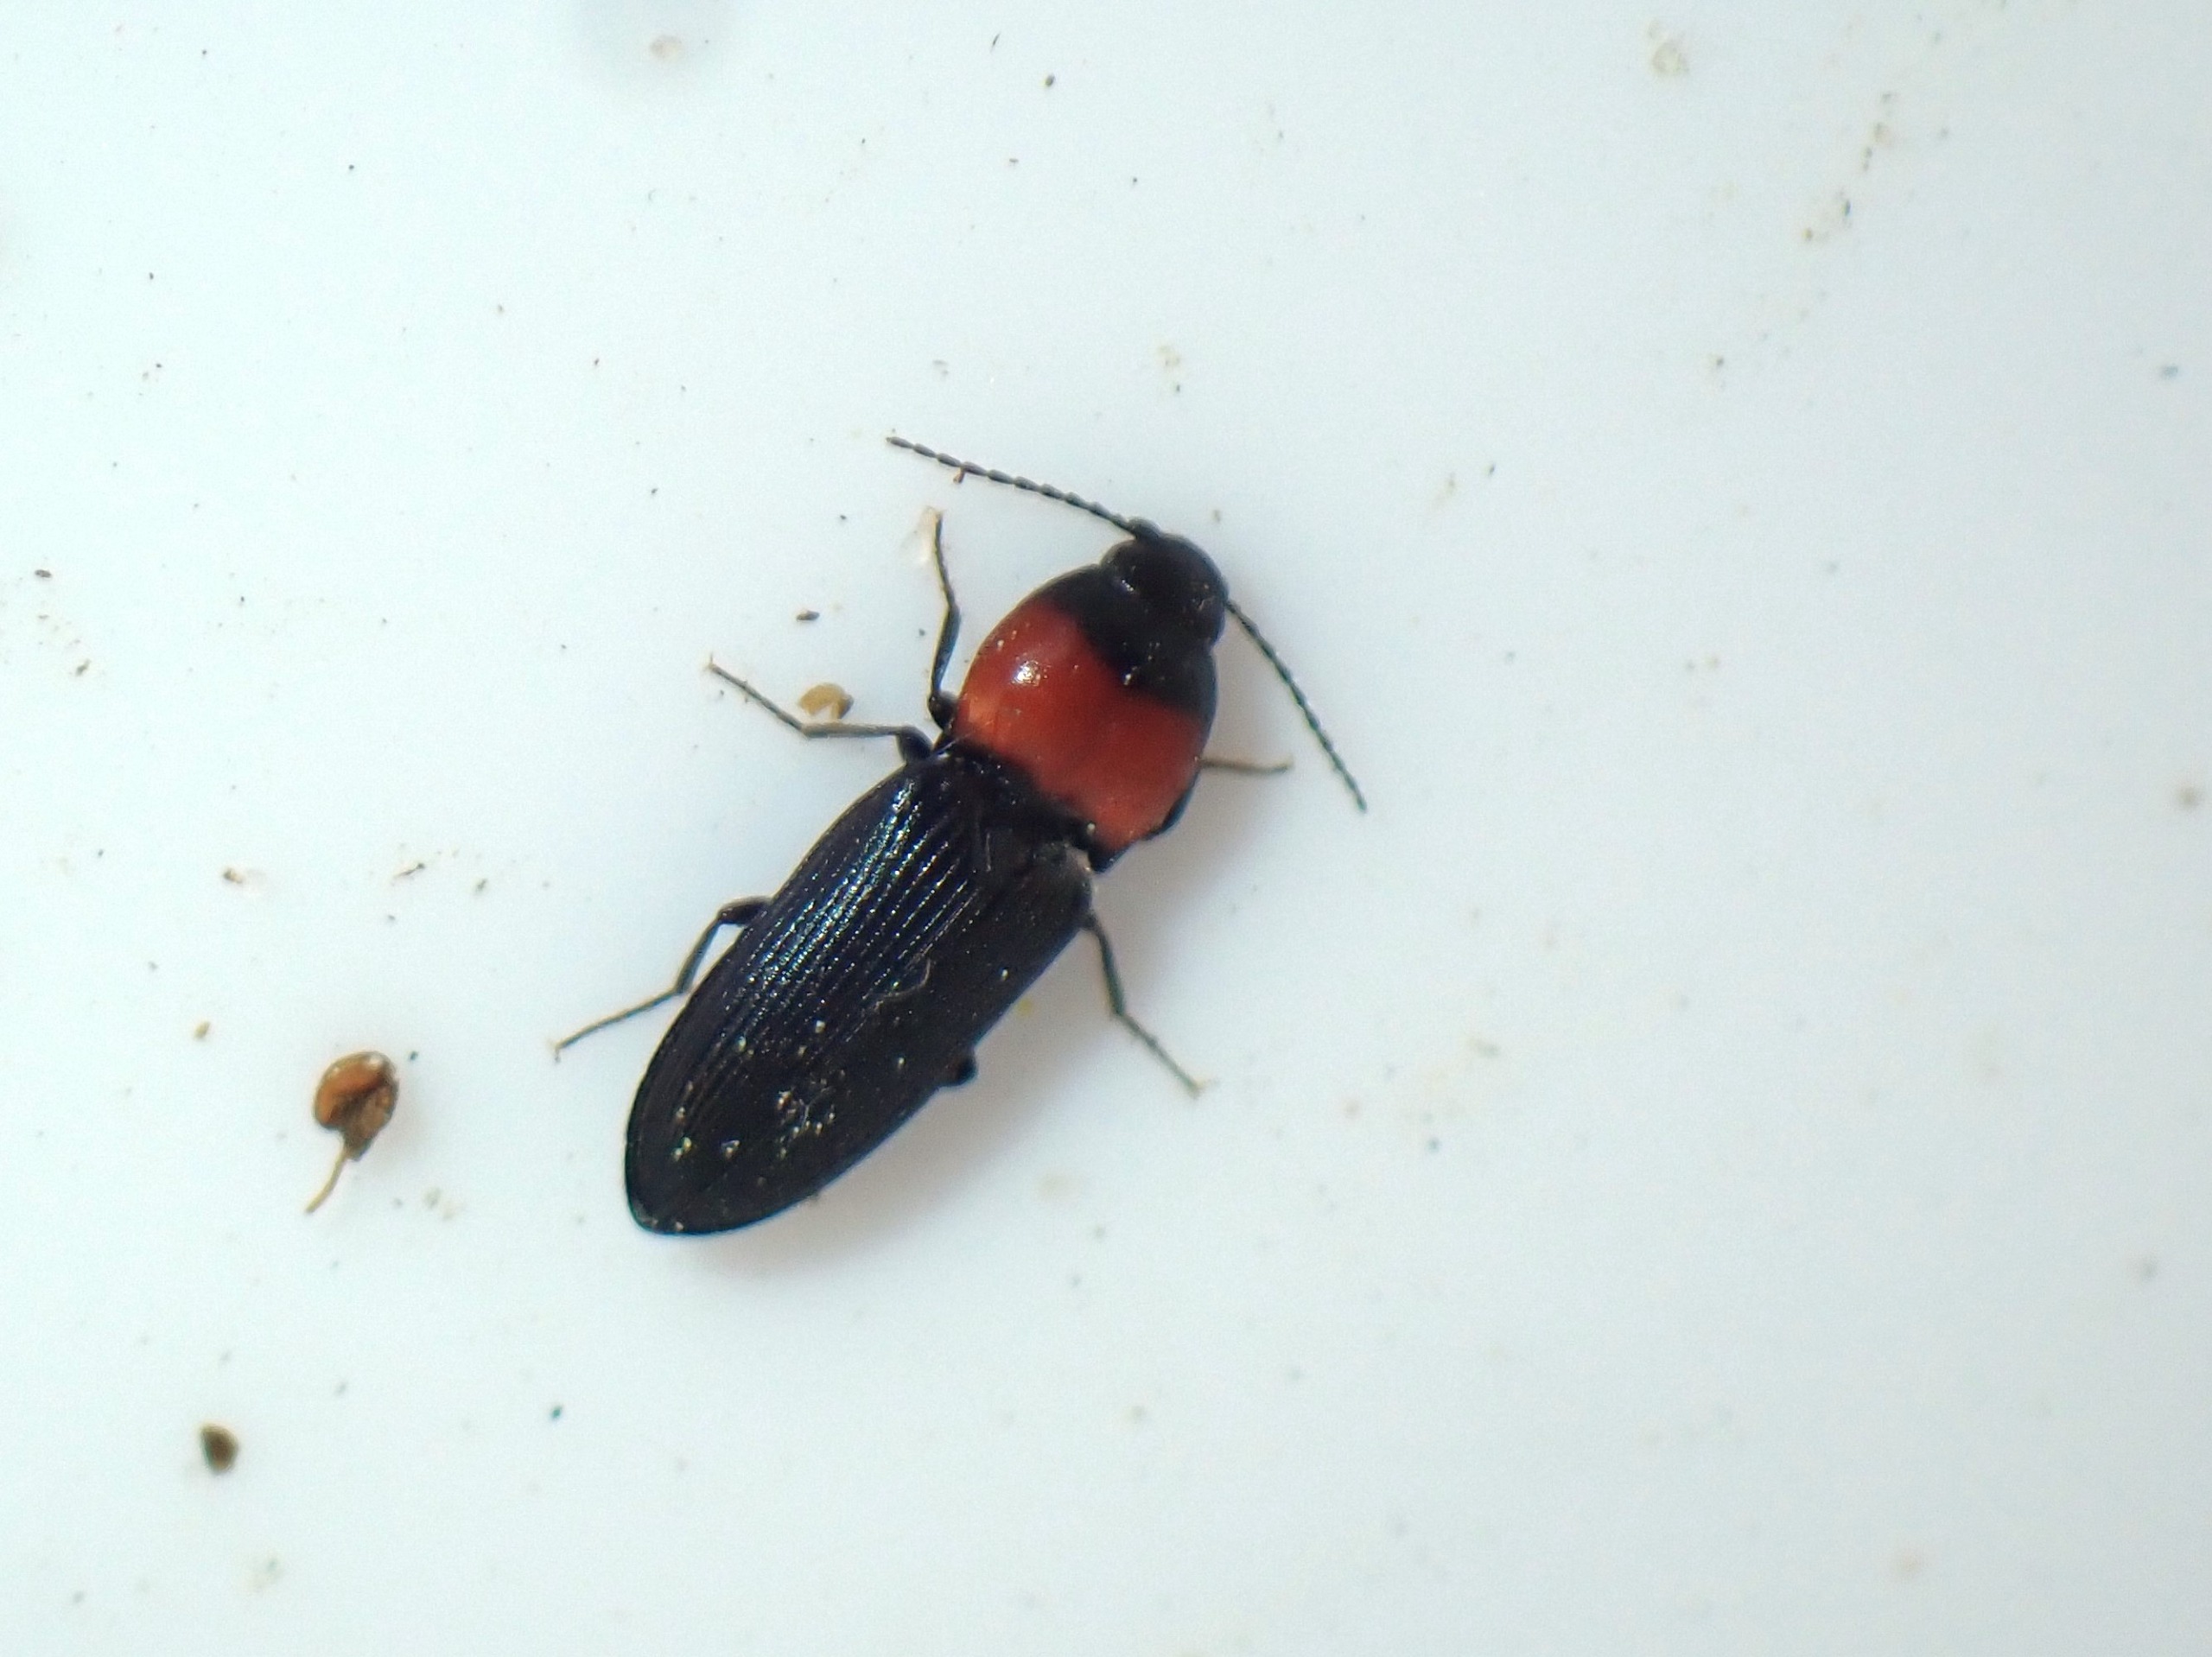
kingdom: Animalia
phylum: Arthropoda
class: Insecta
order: Coleoptera
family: Elateridae
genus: Cardiophorus
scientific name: Cardiophorus ruficollis
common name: Rødbrystet hjertesmælder
